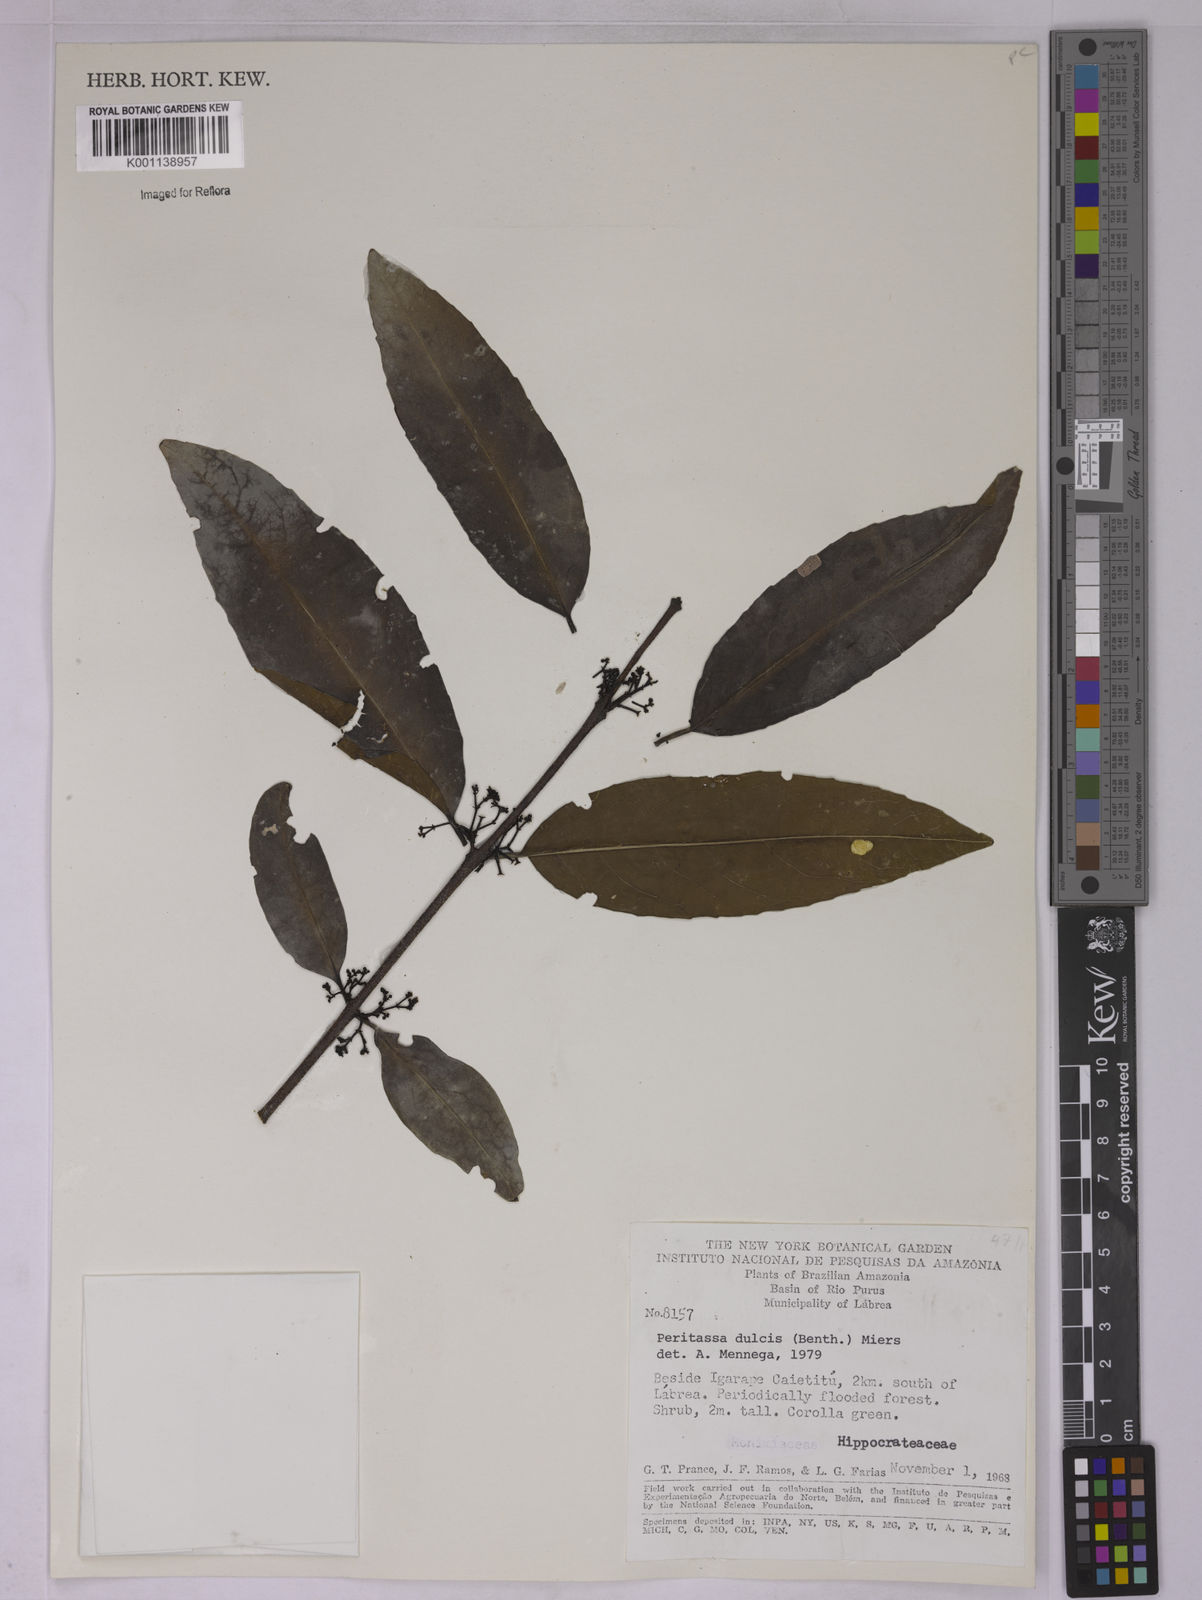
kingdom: Plantae
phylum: Tracheophyta
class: Magnoliopsida
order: Celastrales
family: Celastraceae
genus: Peritassa
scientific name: Peritassa dulcis
